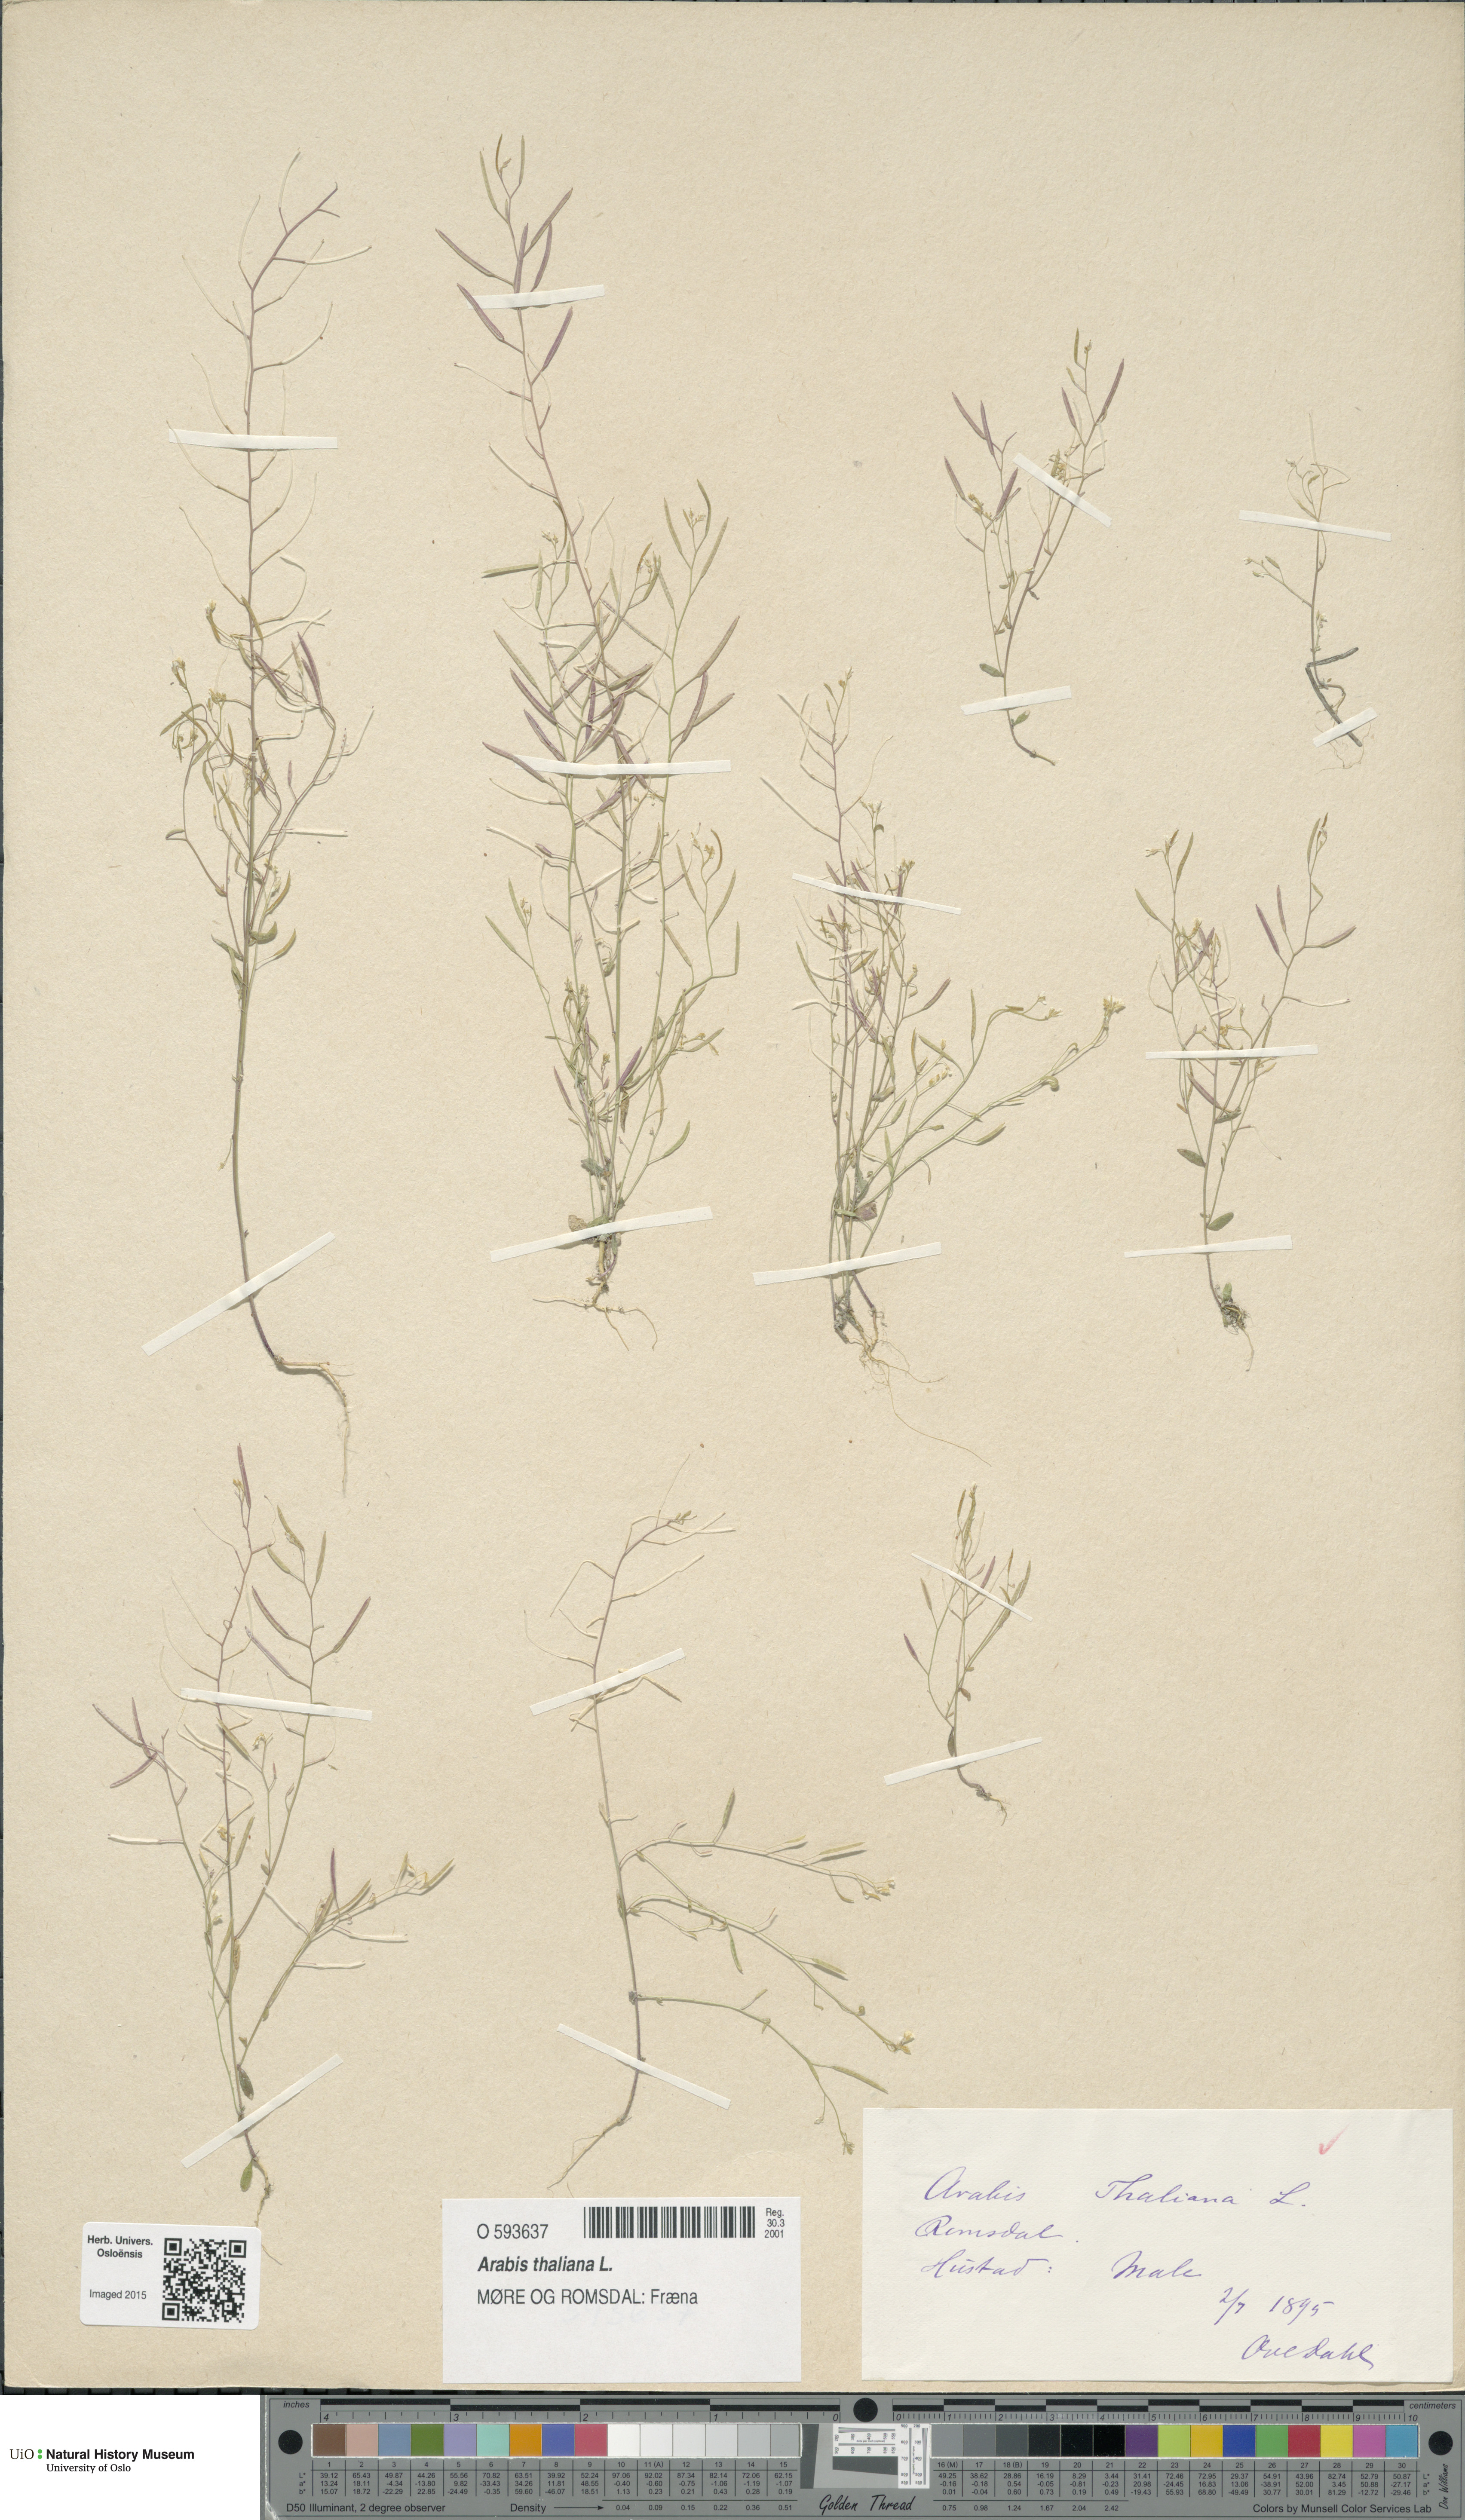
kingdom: Plantae
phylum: Tracheophyta
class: Magnoliopsida
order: Brassicales
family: Brassicaceae
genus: Arabidopsis
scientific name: Arabidopsis thaliana
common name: Thale cress
